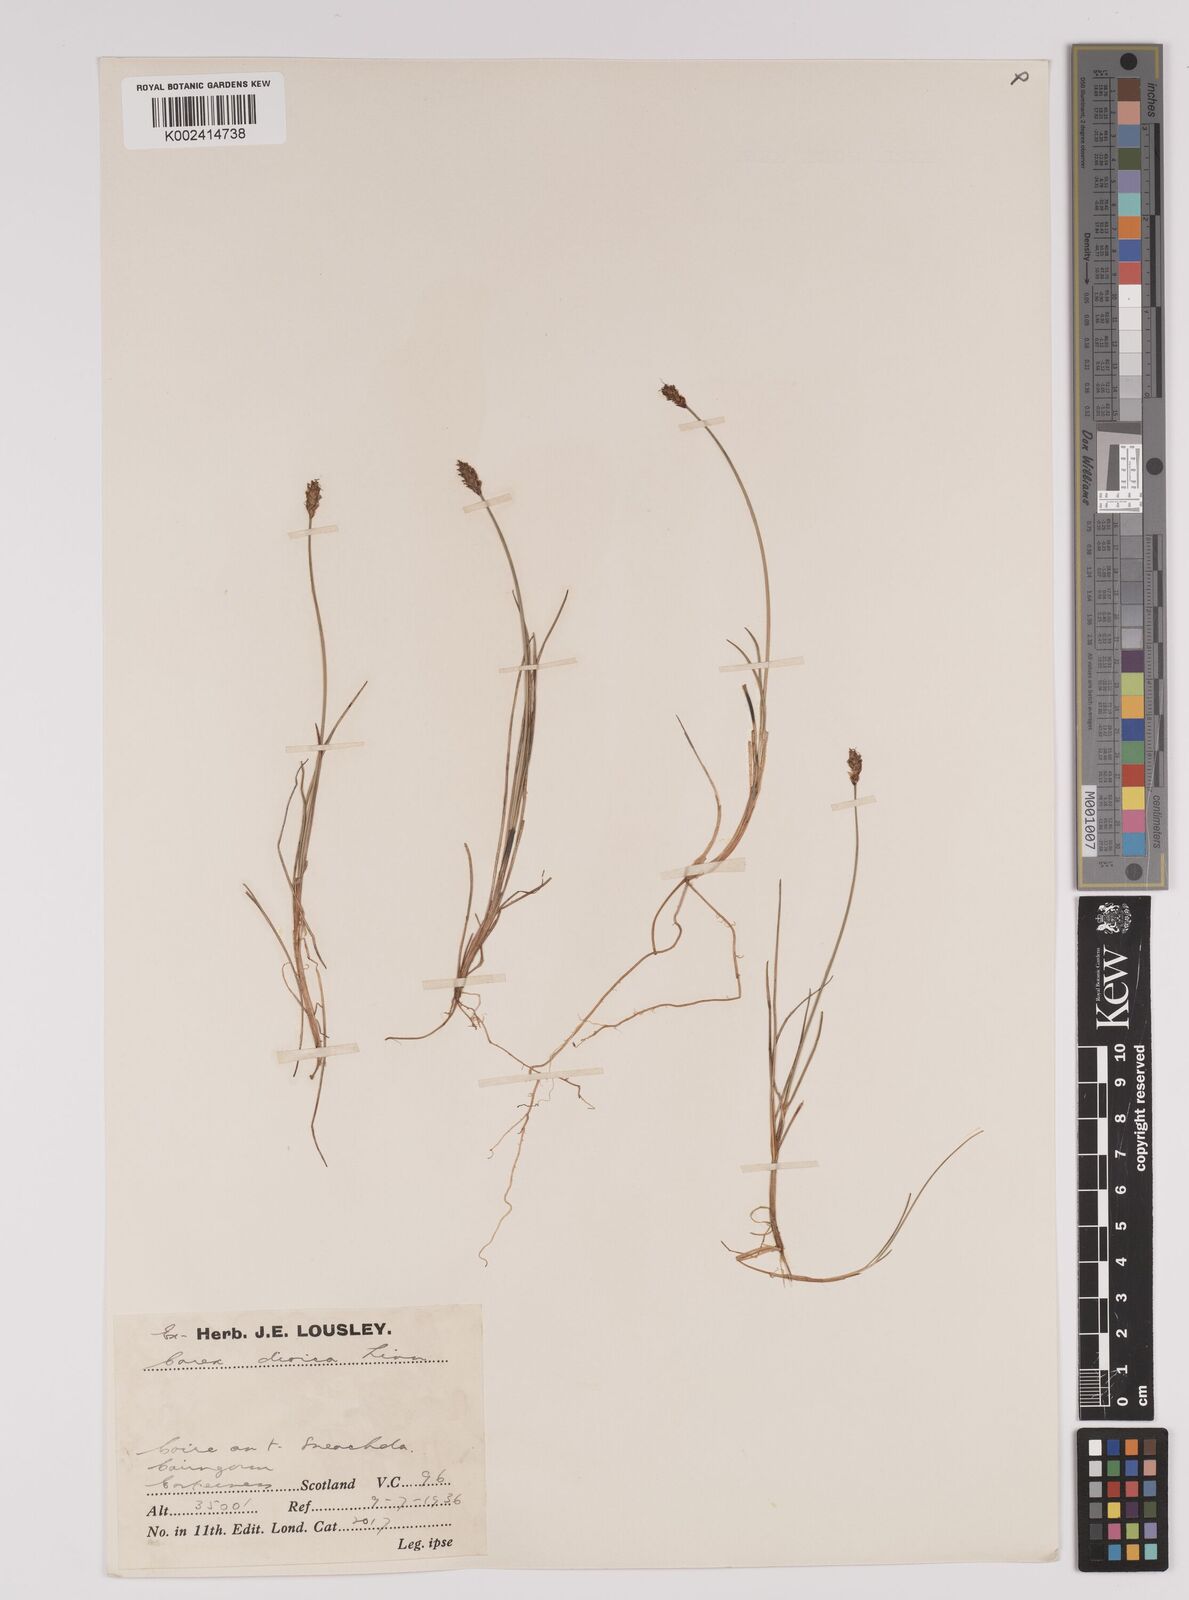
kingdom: Plantae
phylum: Tracheophyta
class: Liliopsida
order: Poales
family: Cyperaceae
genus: Carex
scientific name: Carex dioica
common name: Dioecious sedge
